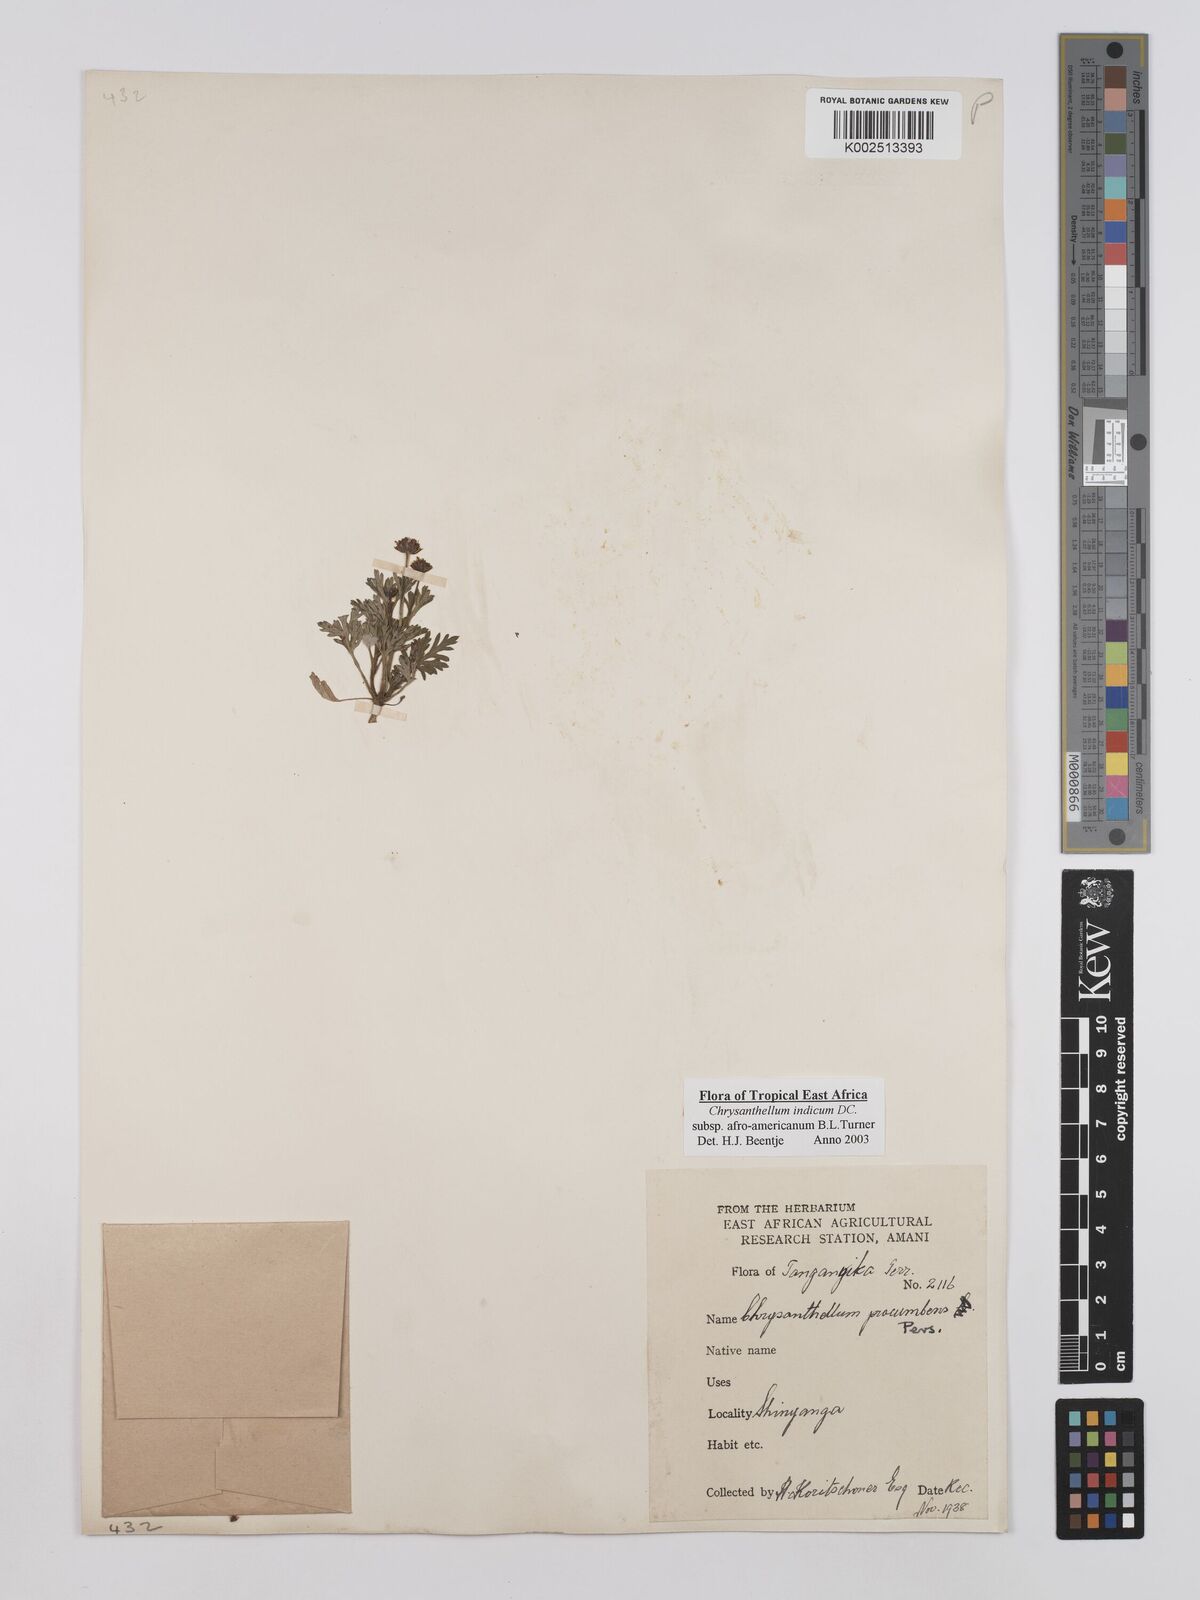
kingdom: Plantae
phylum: Tracheophyta
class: Magnoliopsida
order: Asterales
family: Asteraceae
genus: Chrysanthellum
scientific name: Chrysanthellum indicum
